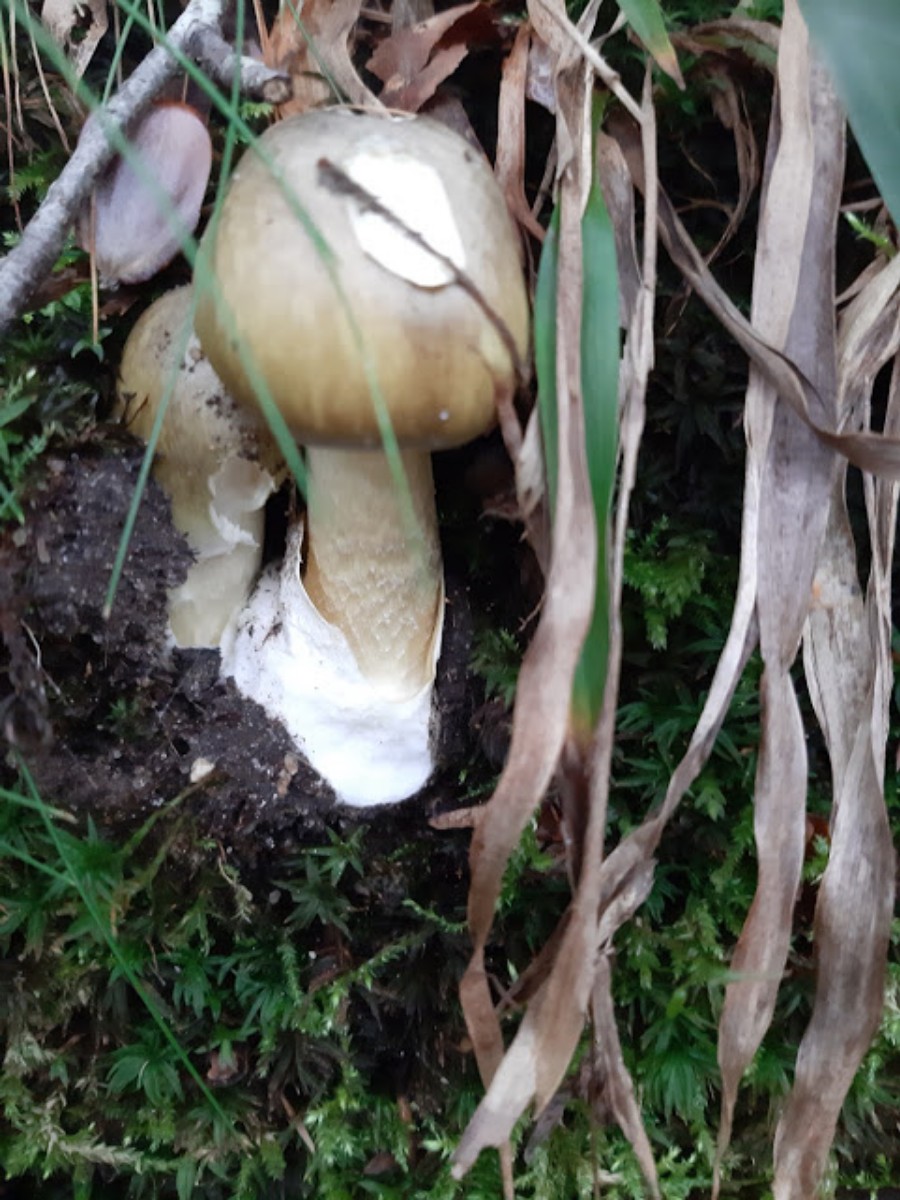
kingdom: Fungi
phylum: Basidiomycota
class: Agaricomycetes
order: Agaricales
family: Amanitaceae
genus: Amanita
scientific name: Amanita phalloides
